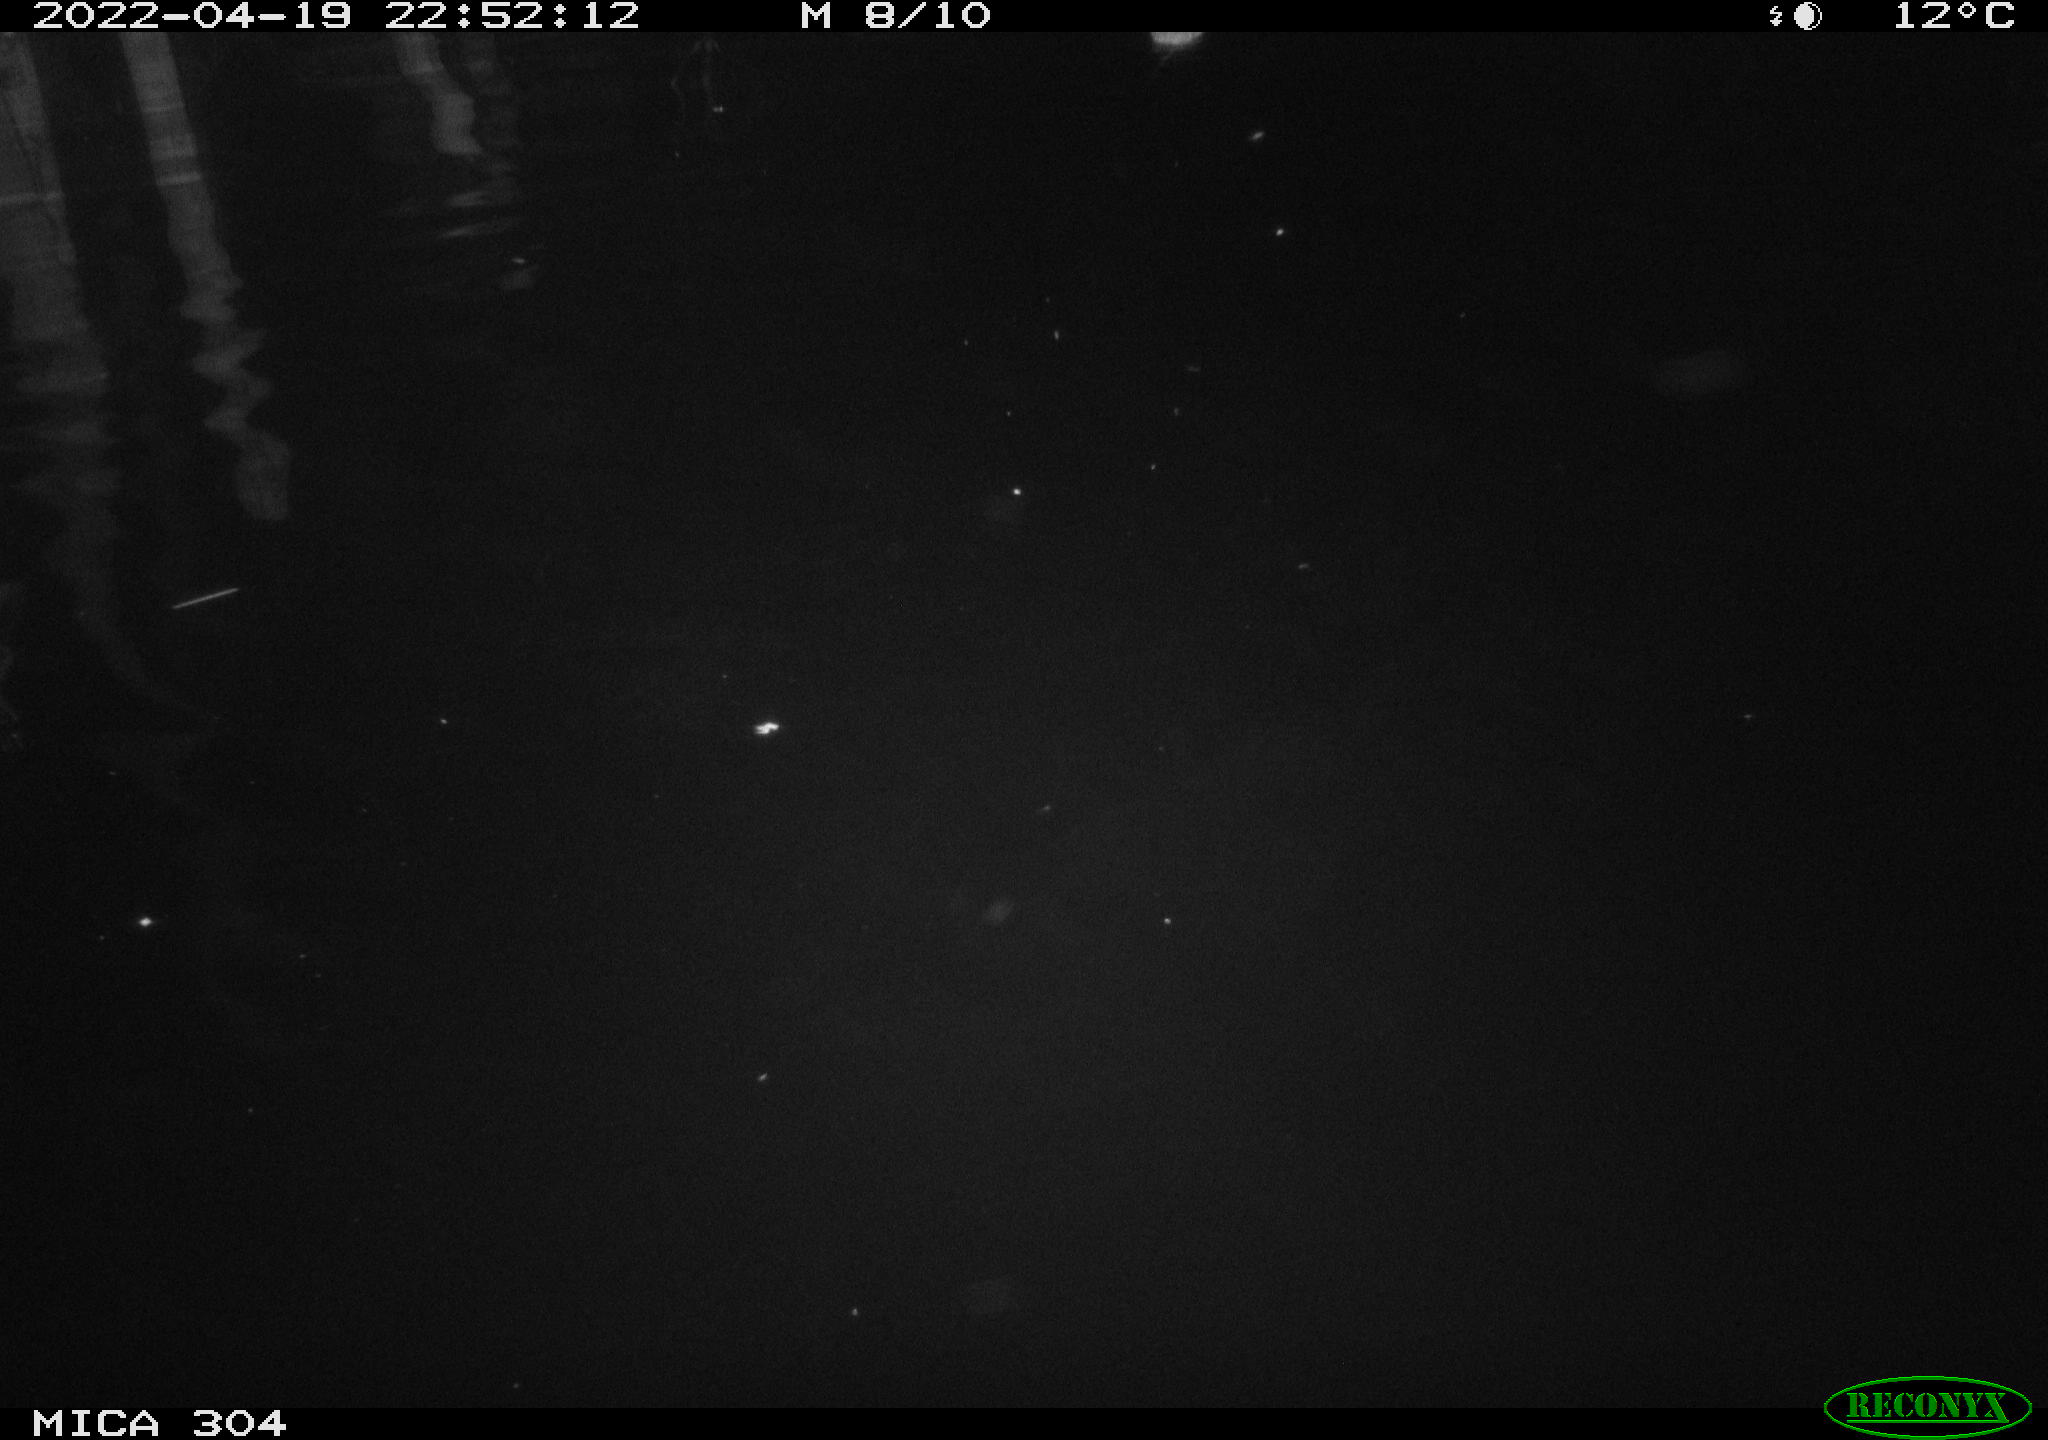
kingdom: Animalia
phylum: Chordata
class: Mammalia
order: Rodentia
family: Muridae
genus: Rattus
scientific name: Rattus norvegicus
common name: Brown rat
